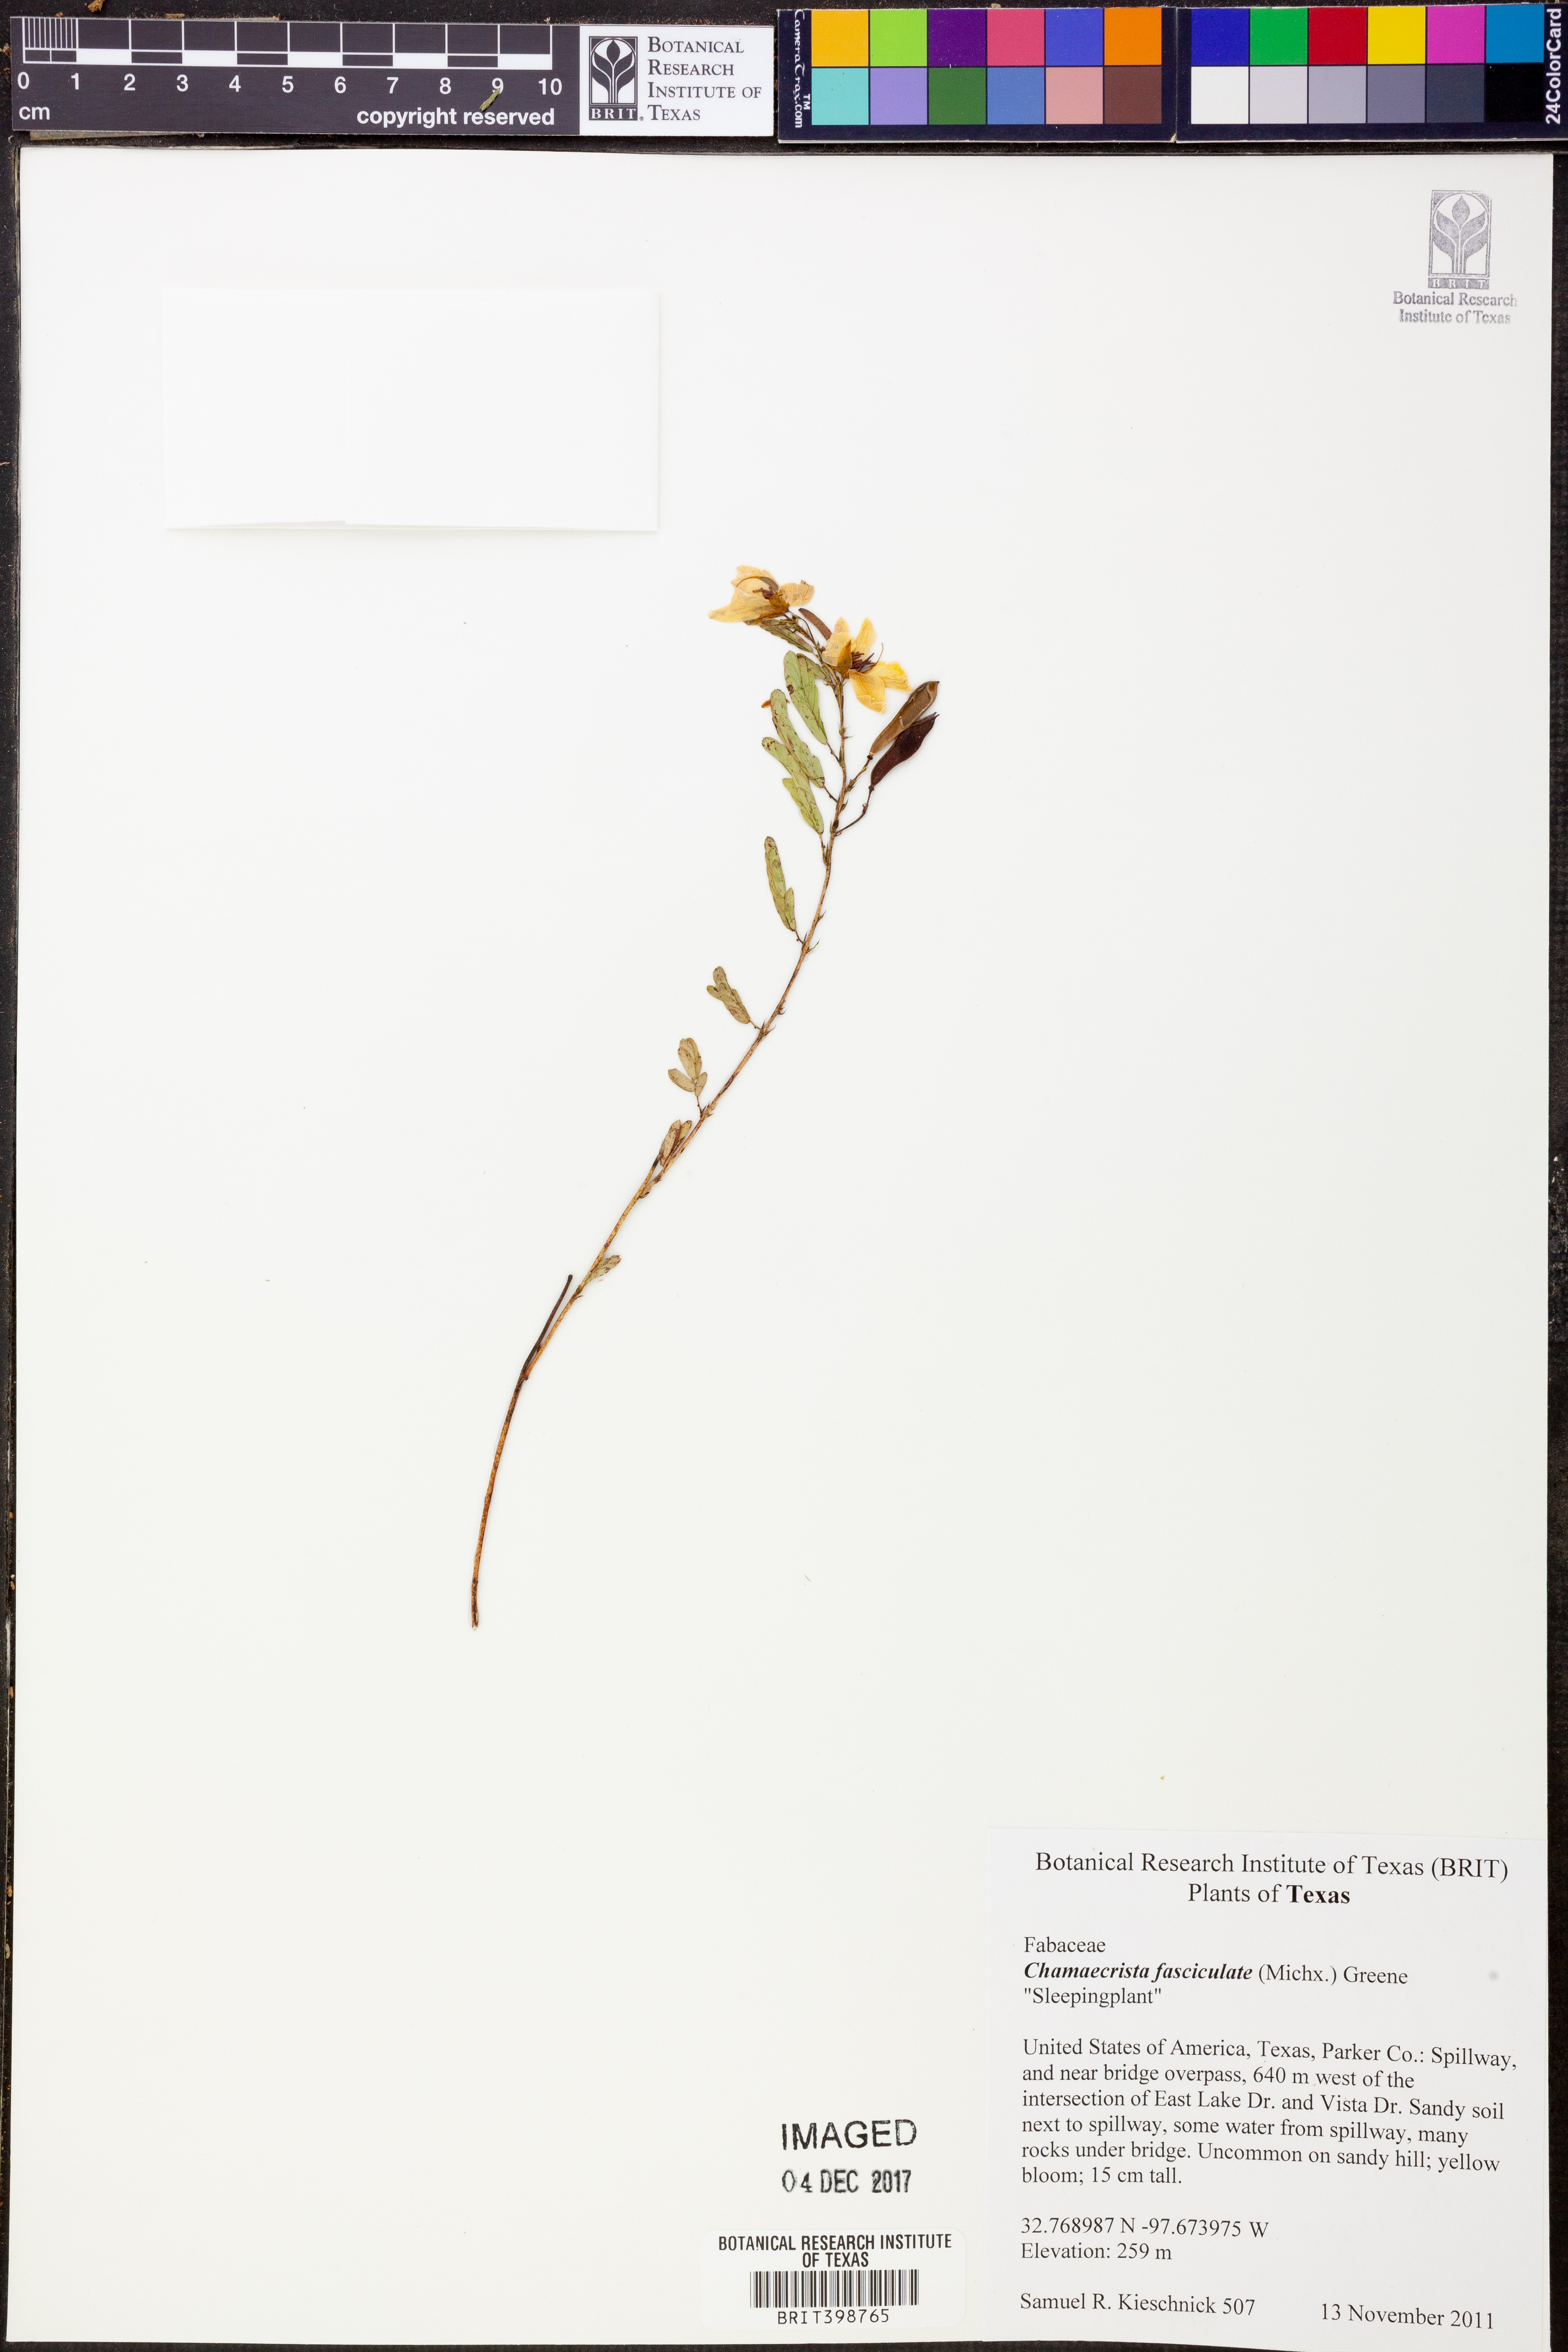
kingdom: Plantae
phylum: Tracheophyta
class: Magnoliopsida
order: Fabales
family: Fabaceae
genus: Chamaecrista
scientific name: Chamaecrista fasciculata
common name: Golden cassia
